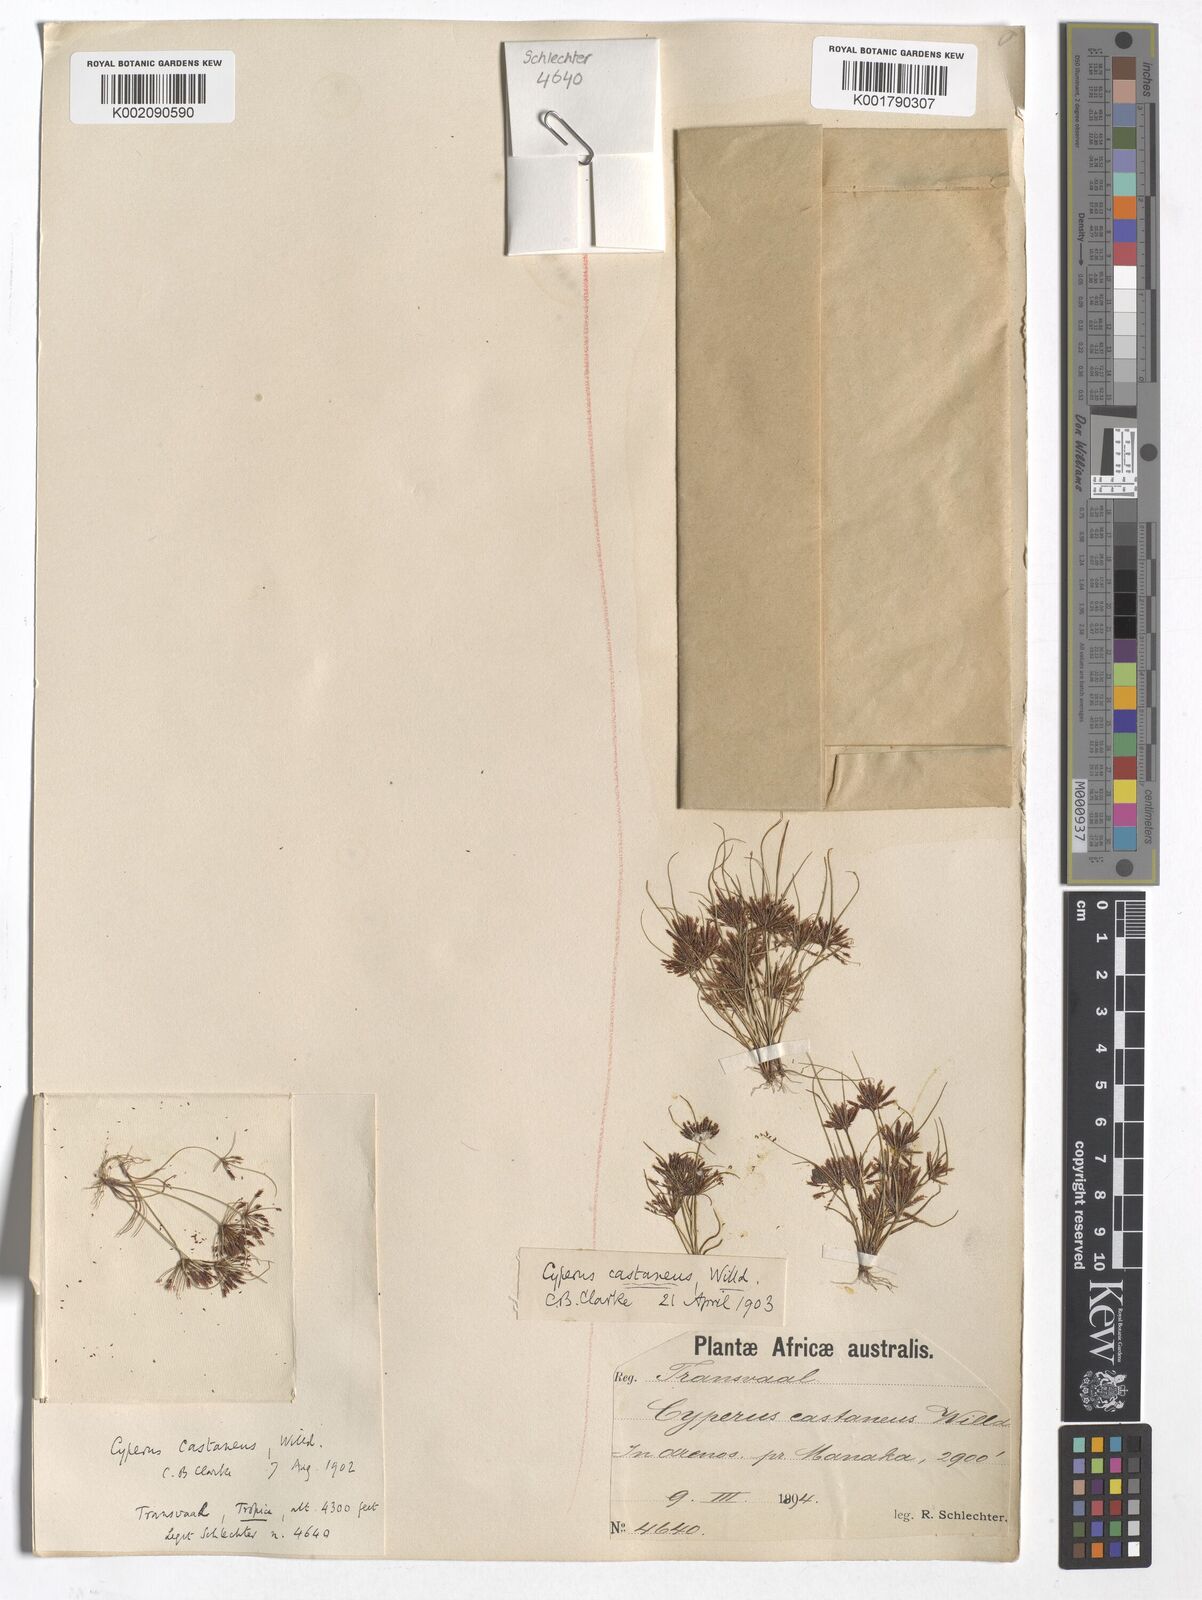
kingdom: Plantae
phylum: Tracheophyta
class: Liliopsida
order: Poales
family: Cyperaceae
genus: Cyperus
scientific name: Cyperus castaneus
